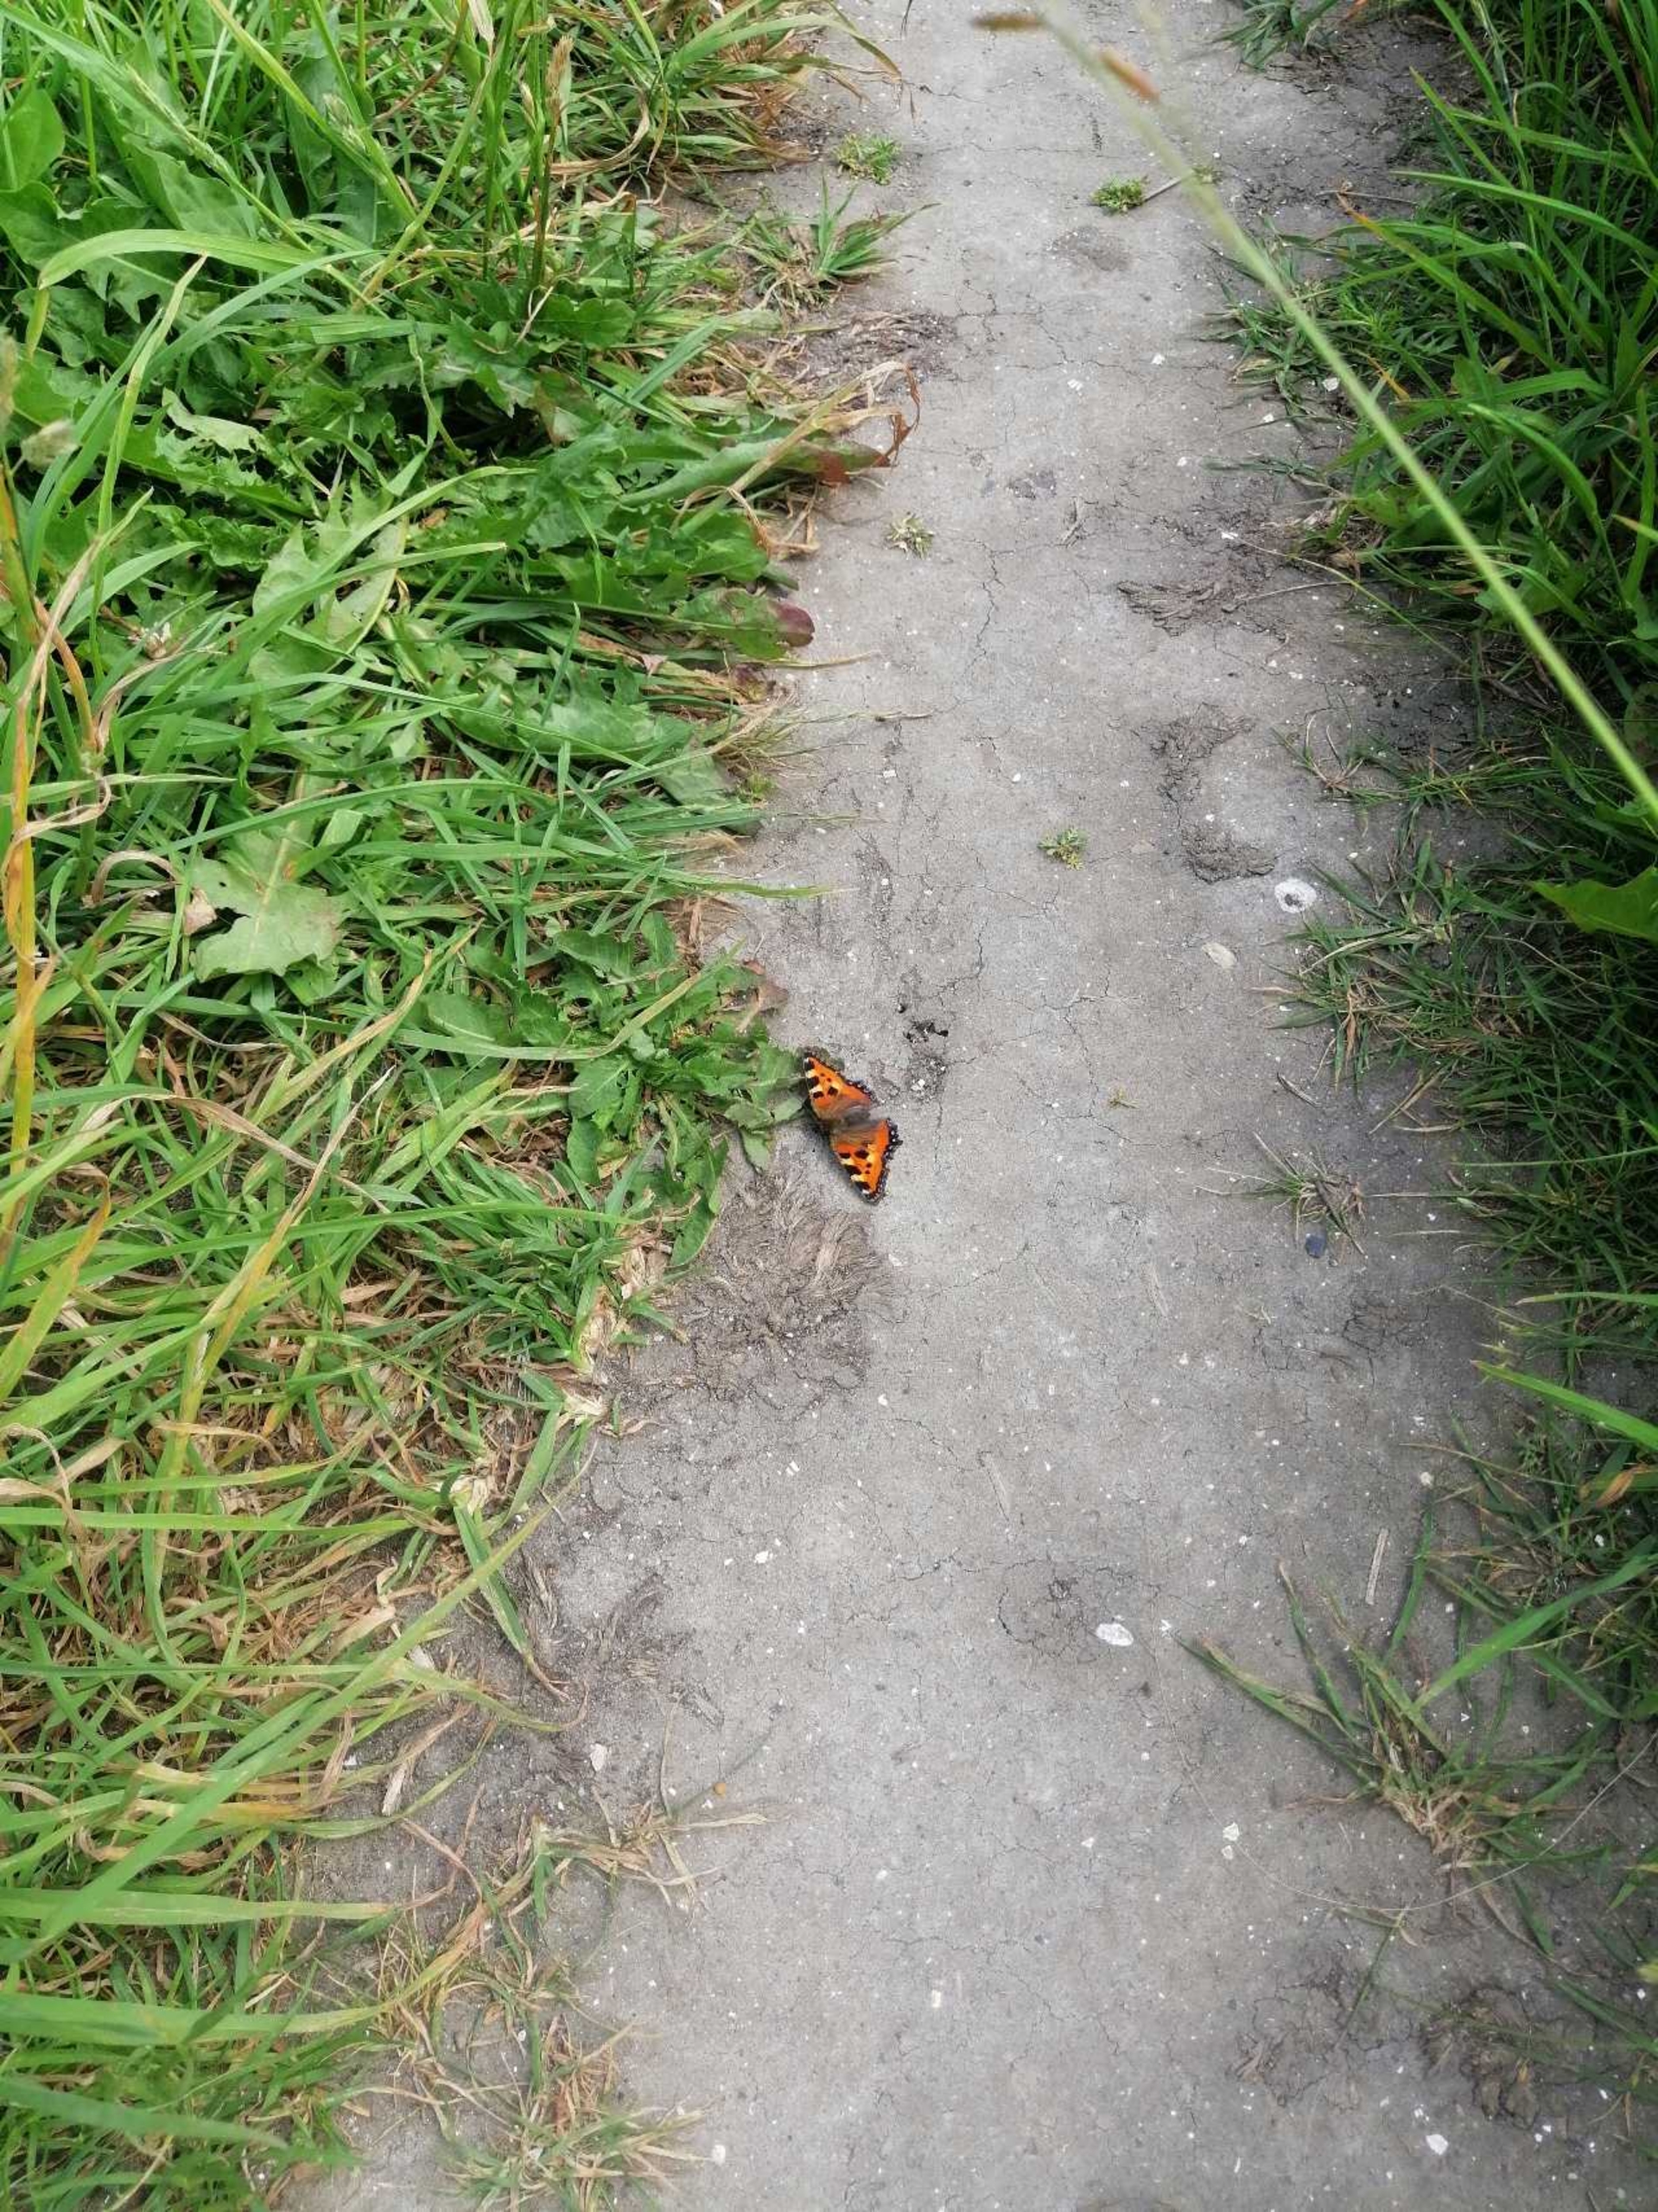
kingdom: Animalia
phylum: Arthropoda
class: Insecta
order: Lepidoptera
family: Nymphalidae
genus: Aglais
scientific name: Aglais urticae
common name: Nældens takvinge
